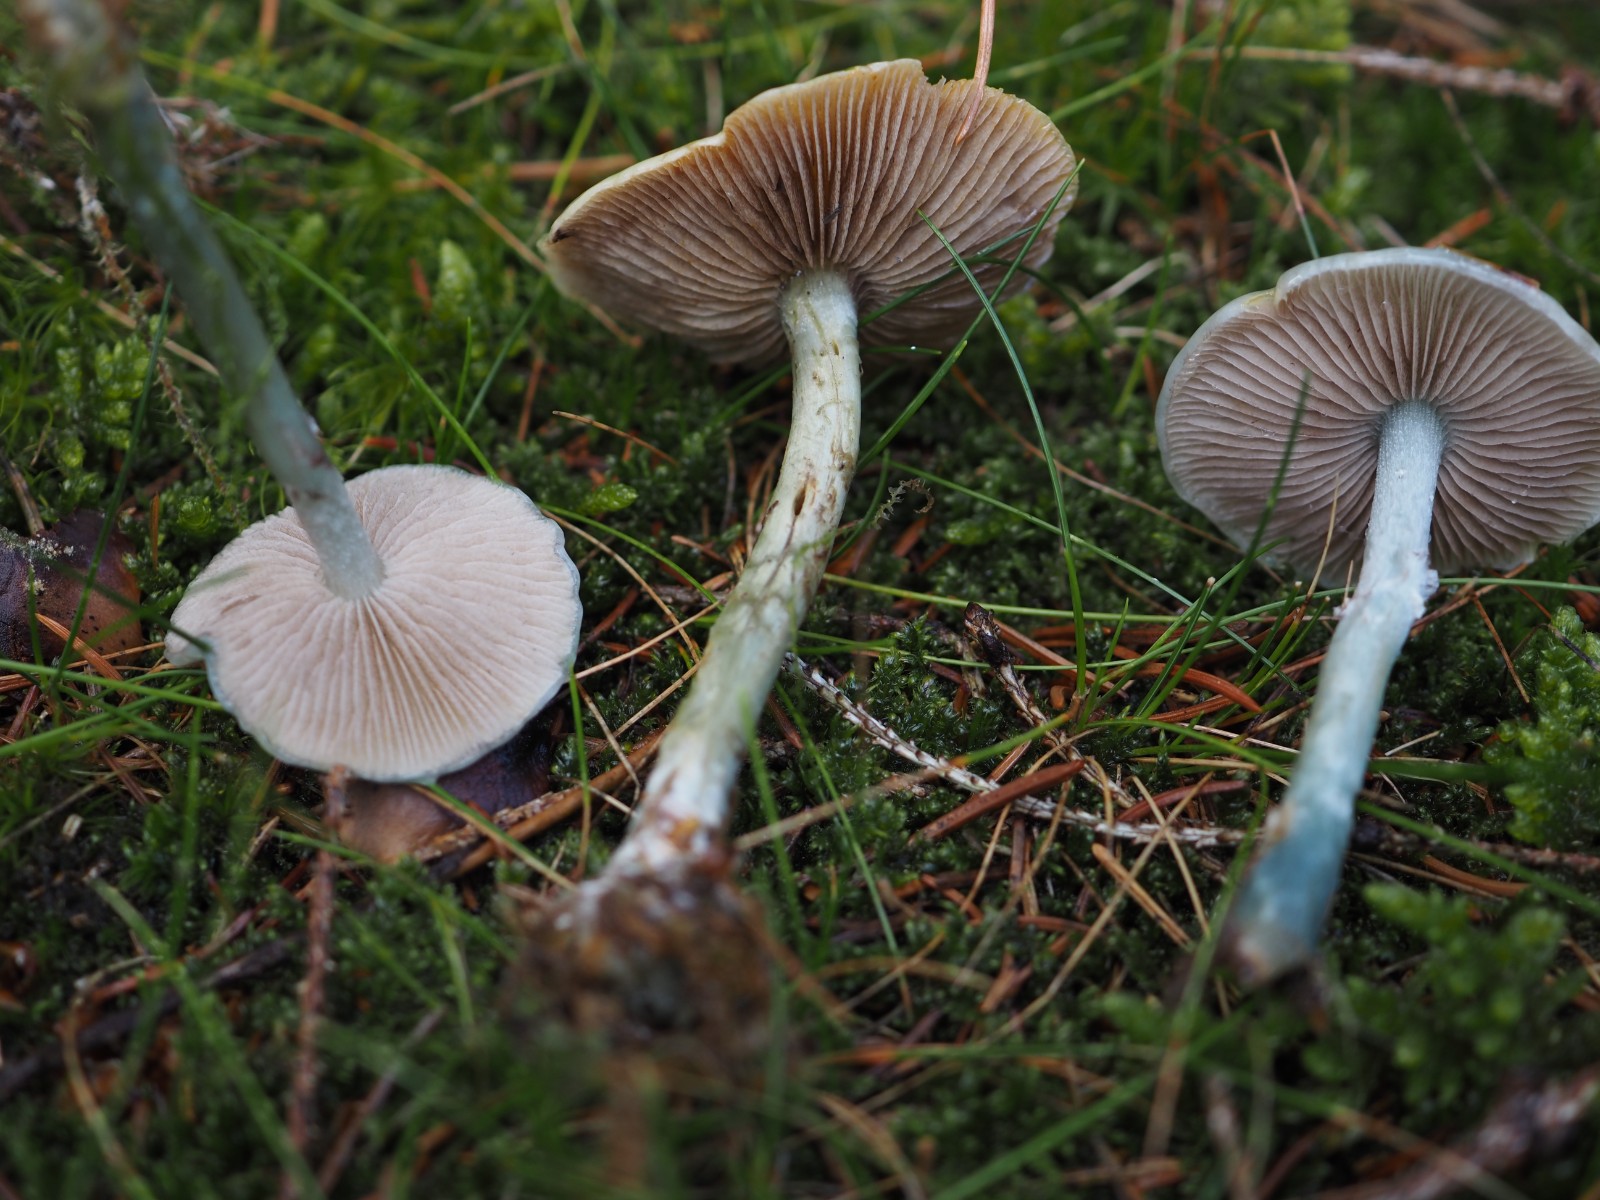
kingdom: Fungi
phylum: Basidiomycota
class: Agaricomycetes
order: Agaricales
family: Strophariaceae
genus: Stropharia
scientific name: Stropharia pseudocyanea
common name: blegblå bredblad
